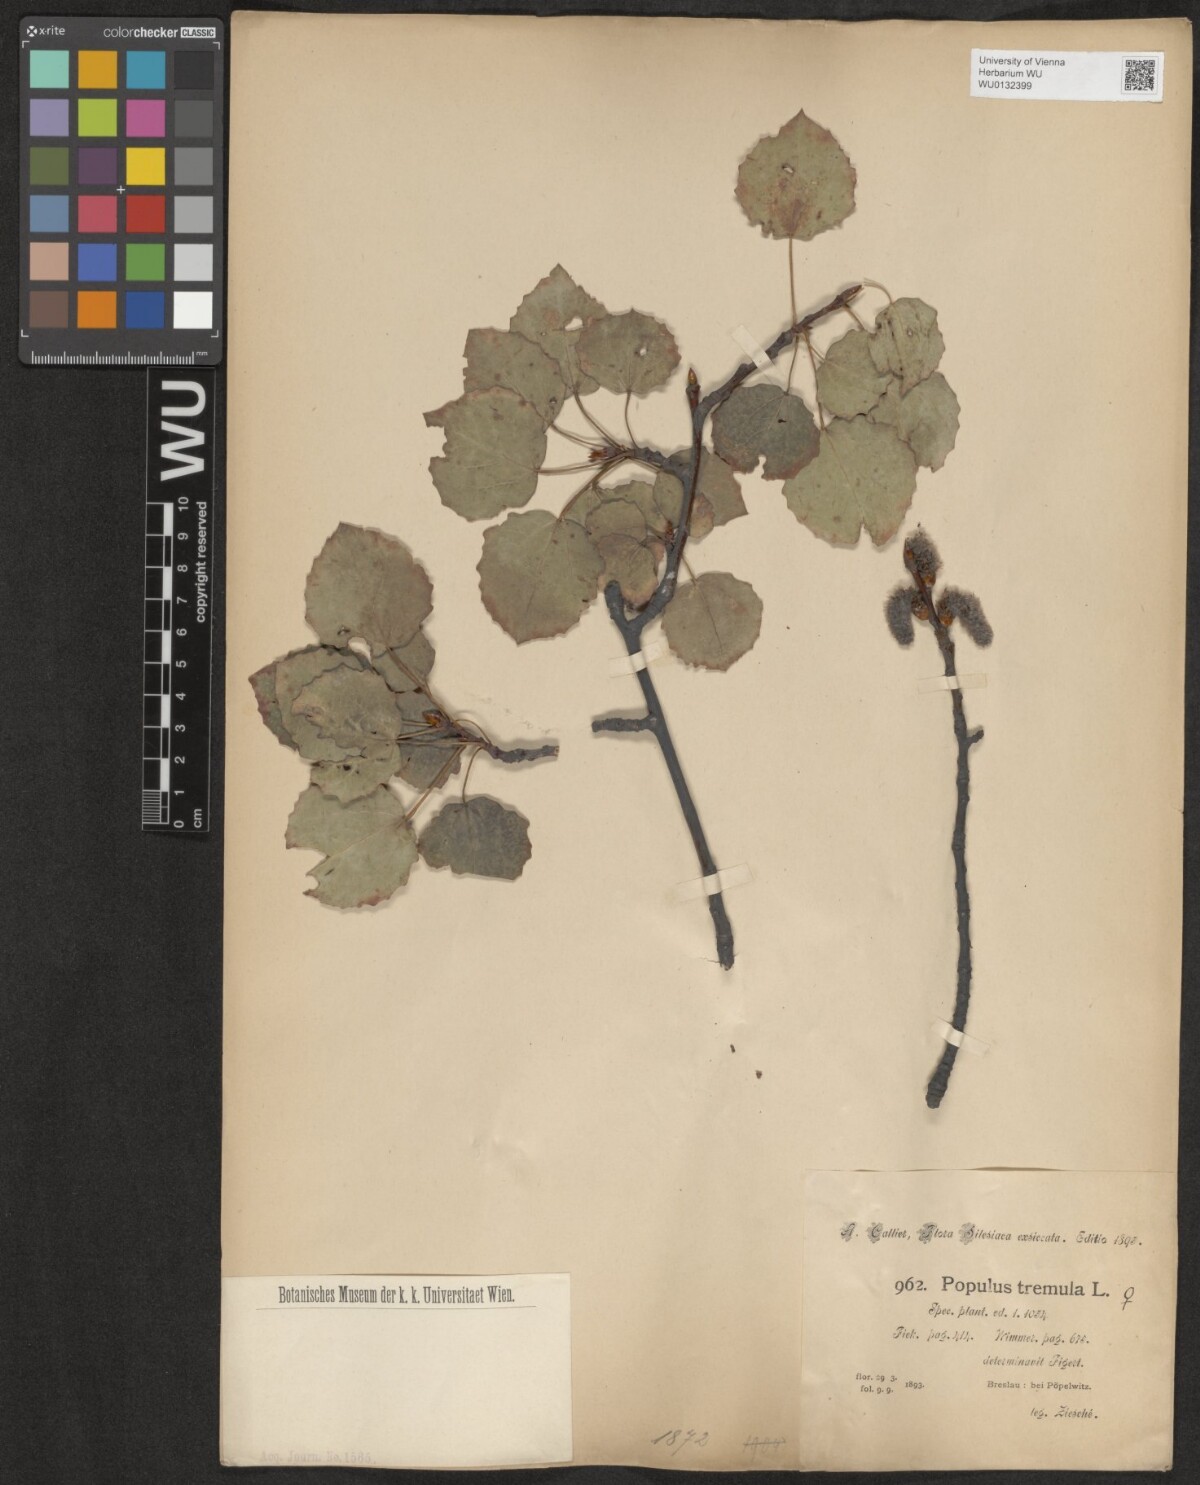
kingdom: Plantae
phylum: Tracheophyta
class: Magnoliopsida
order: Malpighiales
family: Salicaceae
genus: Populus
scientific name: Populus tremula
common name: European aspen
